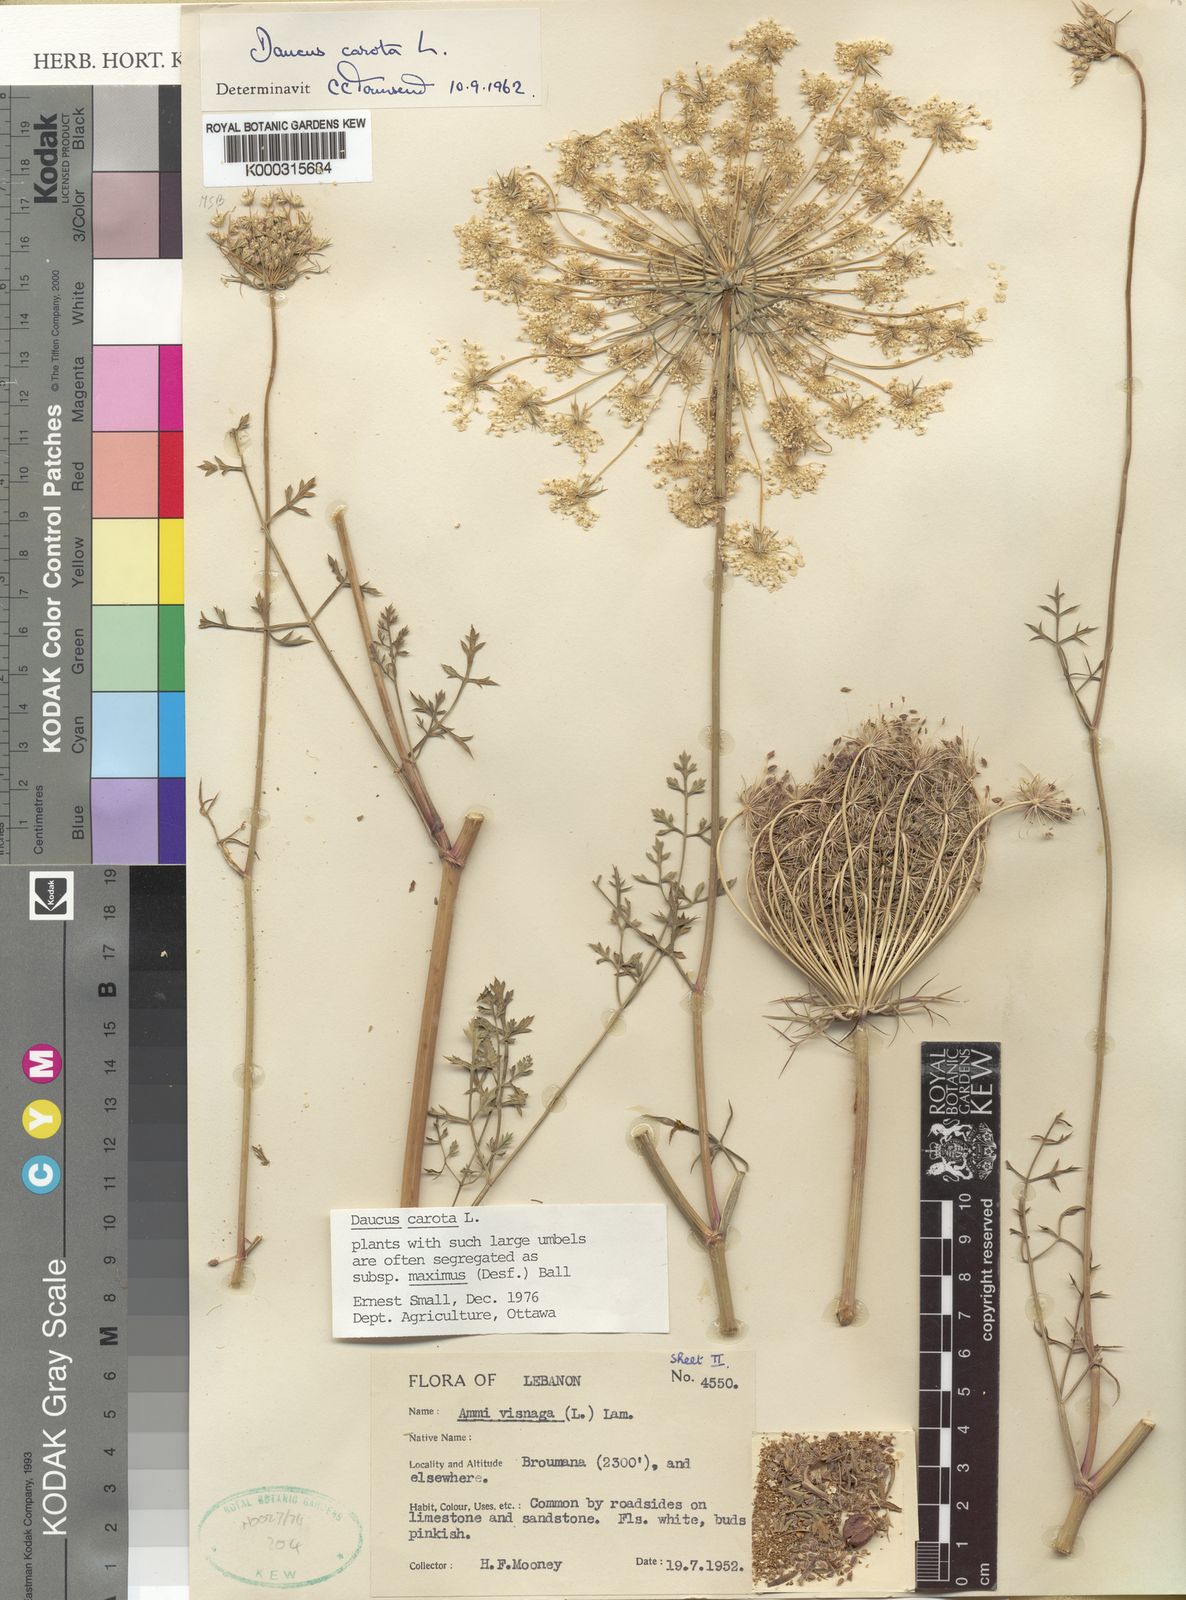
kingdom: Plantae
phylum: Tracheophyta
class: Magnoliopsida
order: Apiales
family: Apiaceae
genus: Daucus
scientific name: Daucus carota
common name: Wild carrot
